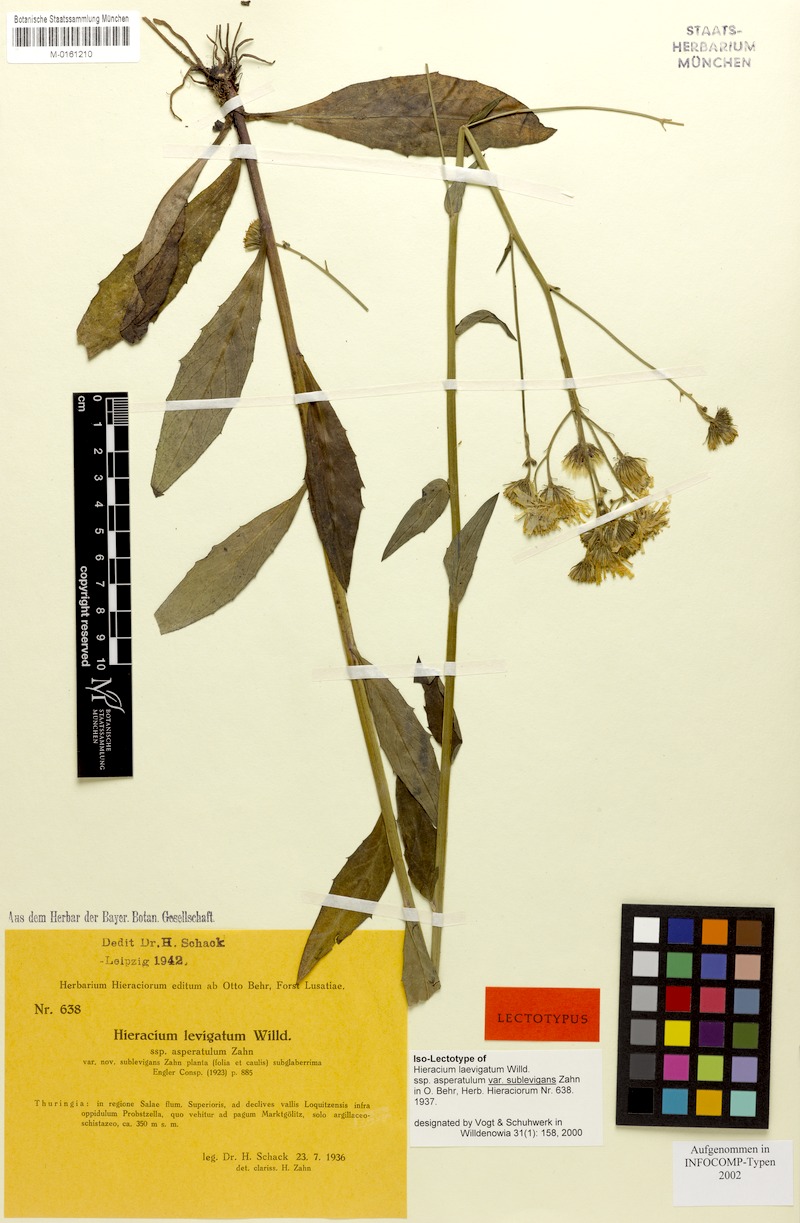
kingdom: Plantae
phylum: Tracheophyta
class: Magnoliopsida
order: Asterales
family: Asteraceae
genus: Hieracium
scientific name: Hieracium laevigatum
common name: Smooth hawkweed
